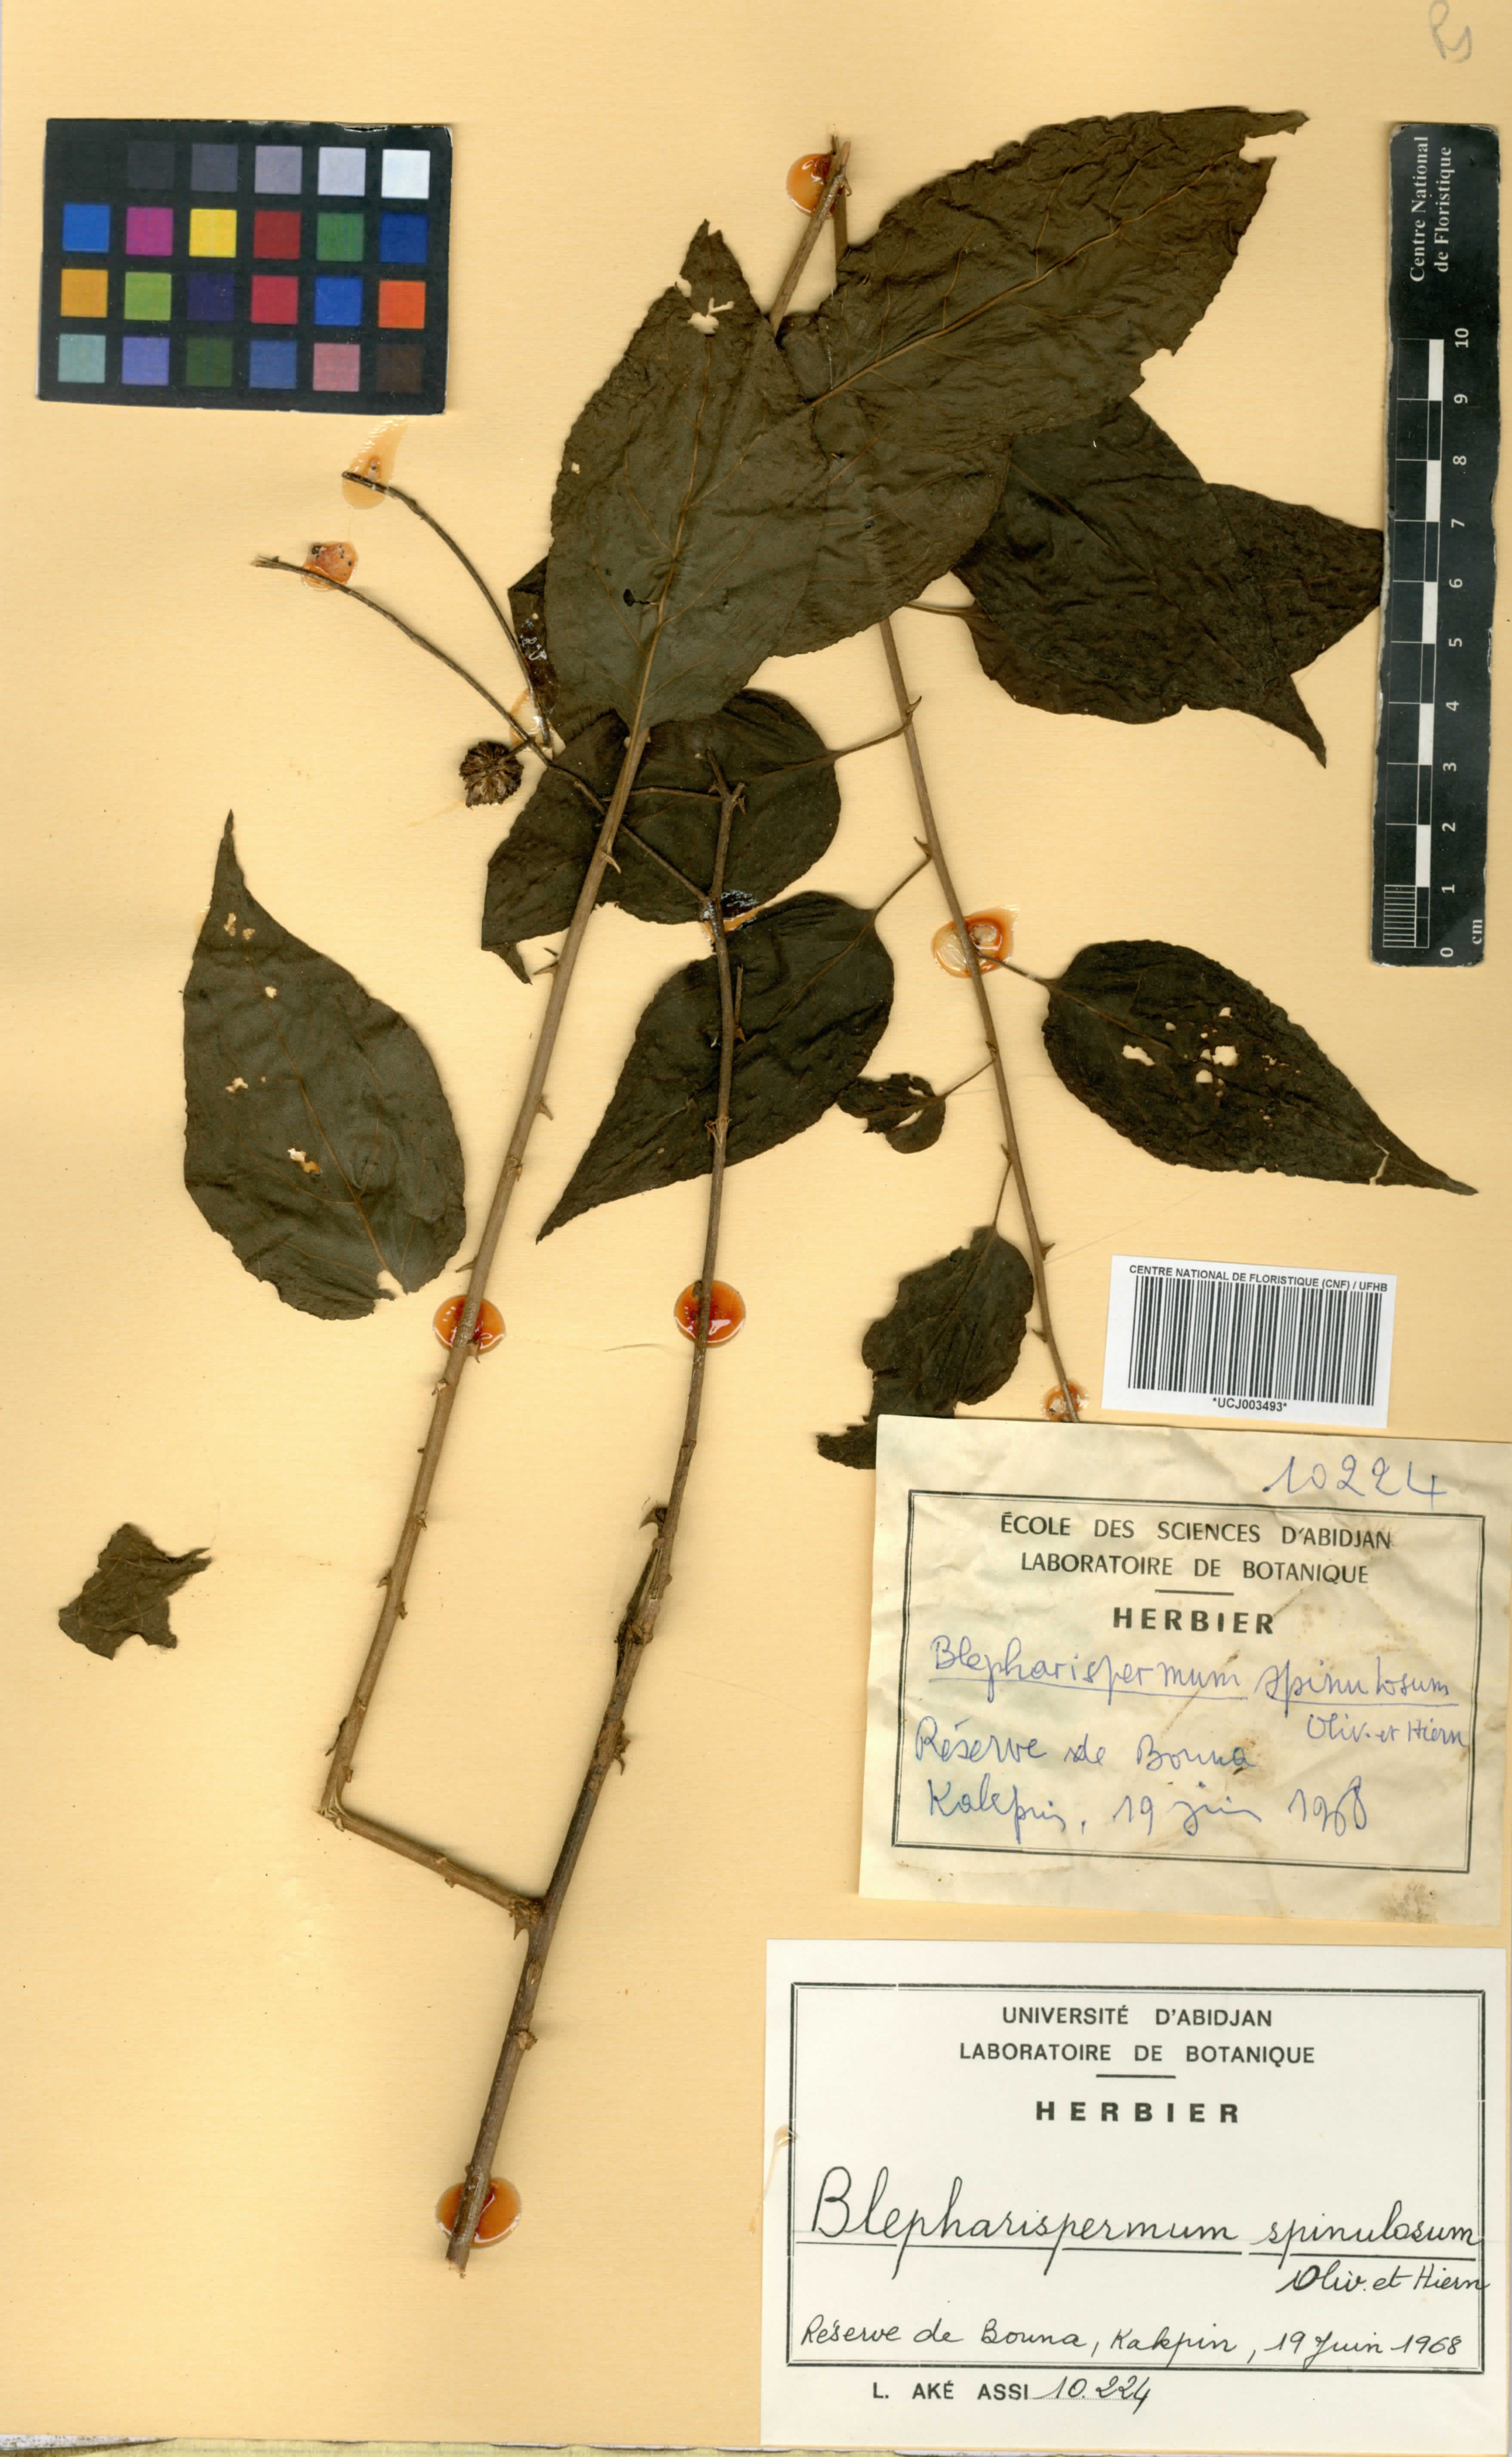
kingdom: Plantae
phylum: Tracheophyta
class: Magnoliopsida
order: Asterales
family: Asteraceae
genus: Blepharispermum
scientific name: Blepharispermum spinulosum
